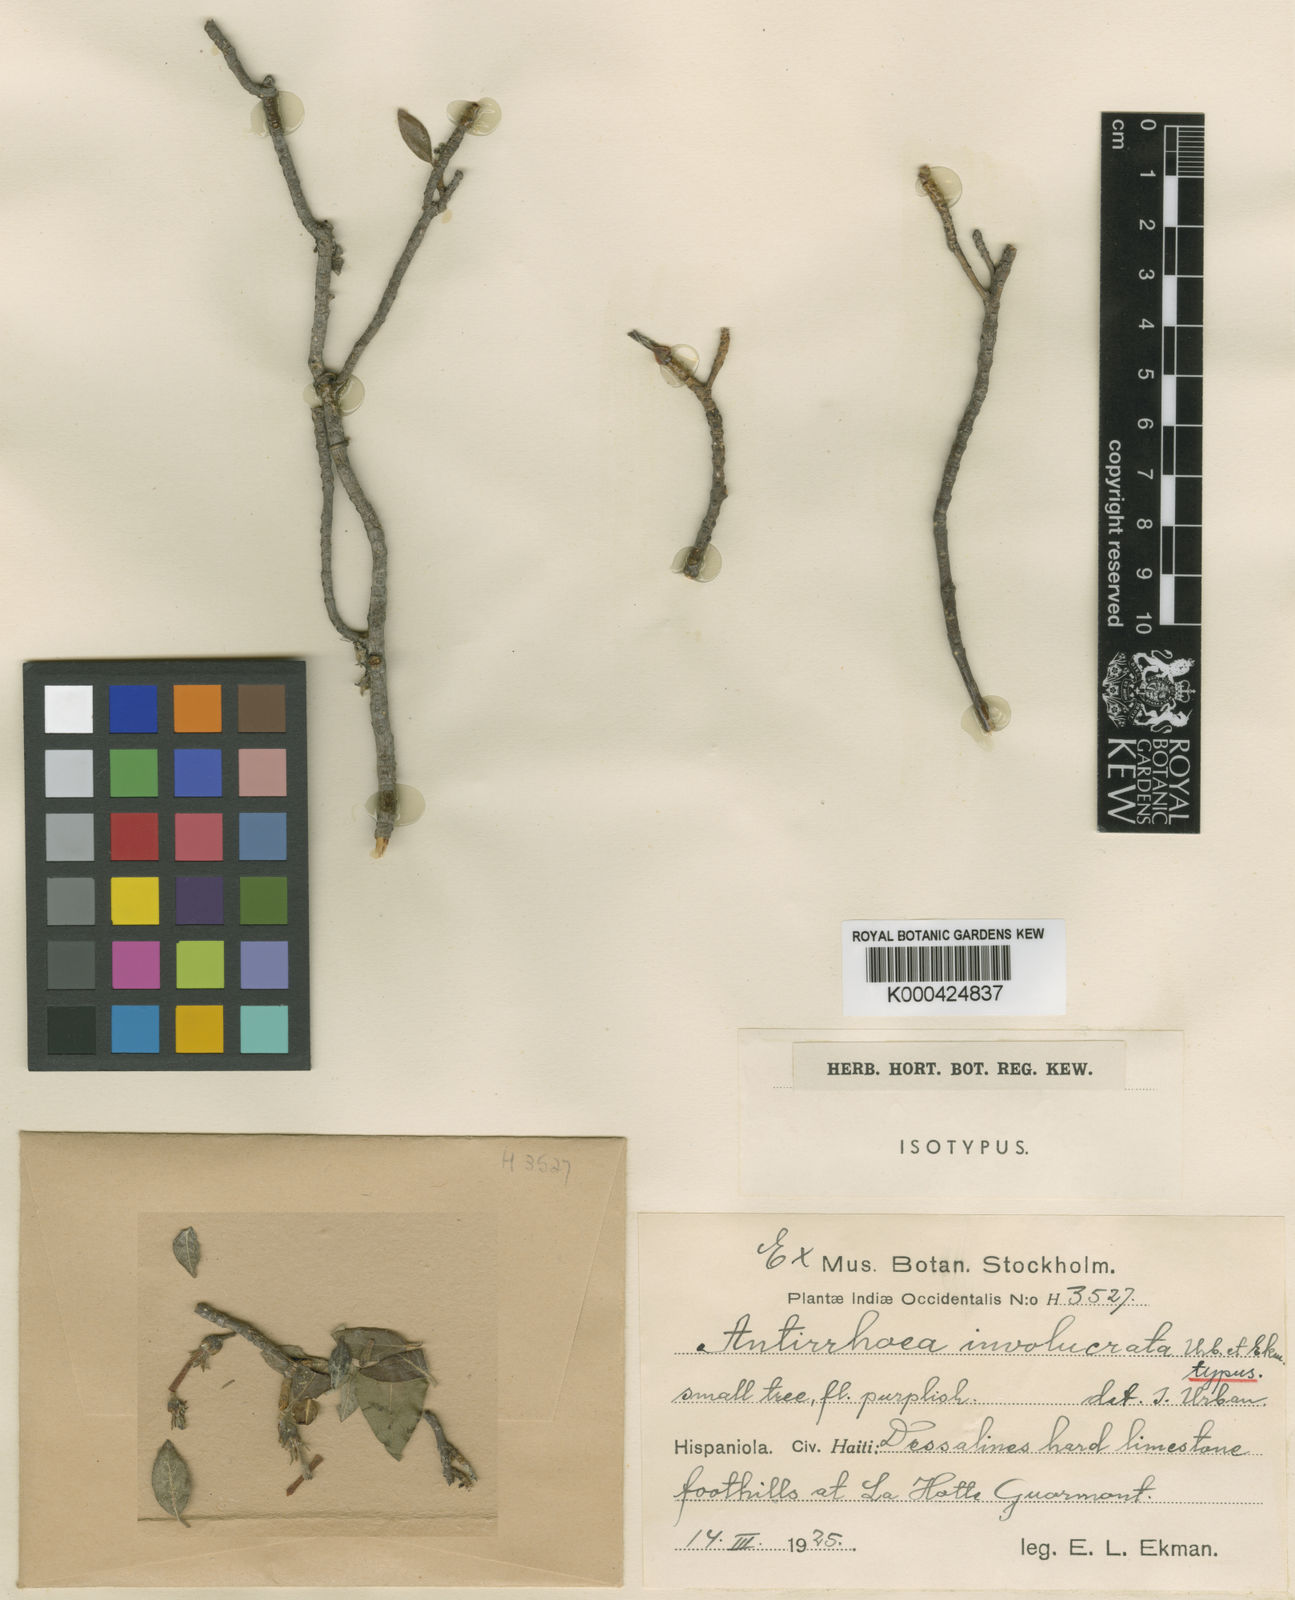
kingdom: Plantae
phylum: Tracheophyta
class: Magnoliopsida
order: Gentianales
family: Rubiaceae
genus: Stenostomum
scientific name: Stenostomum involucratum
